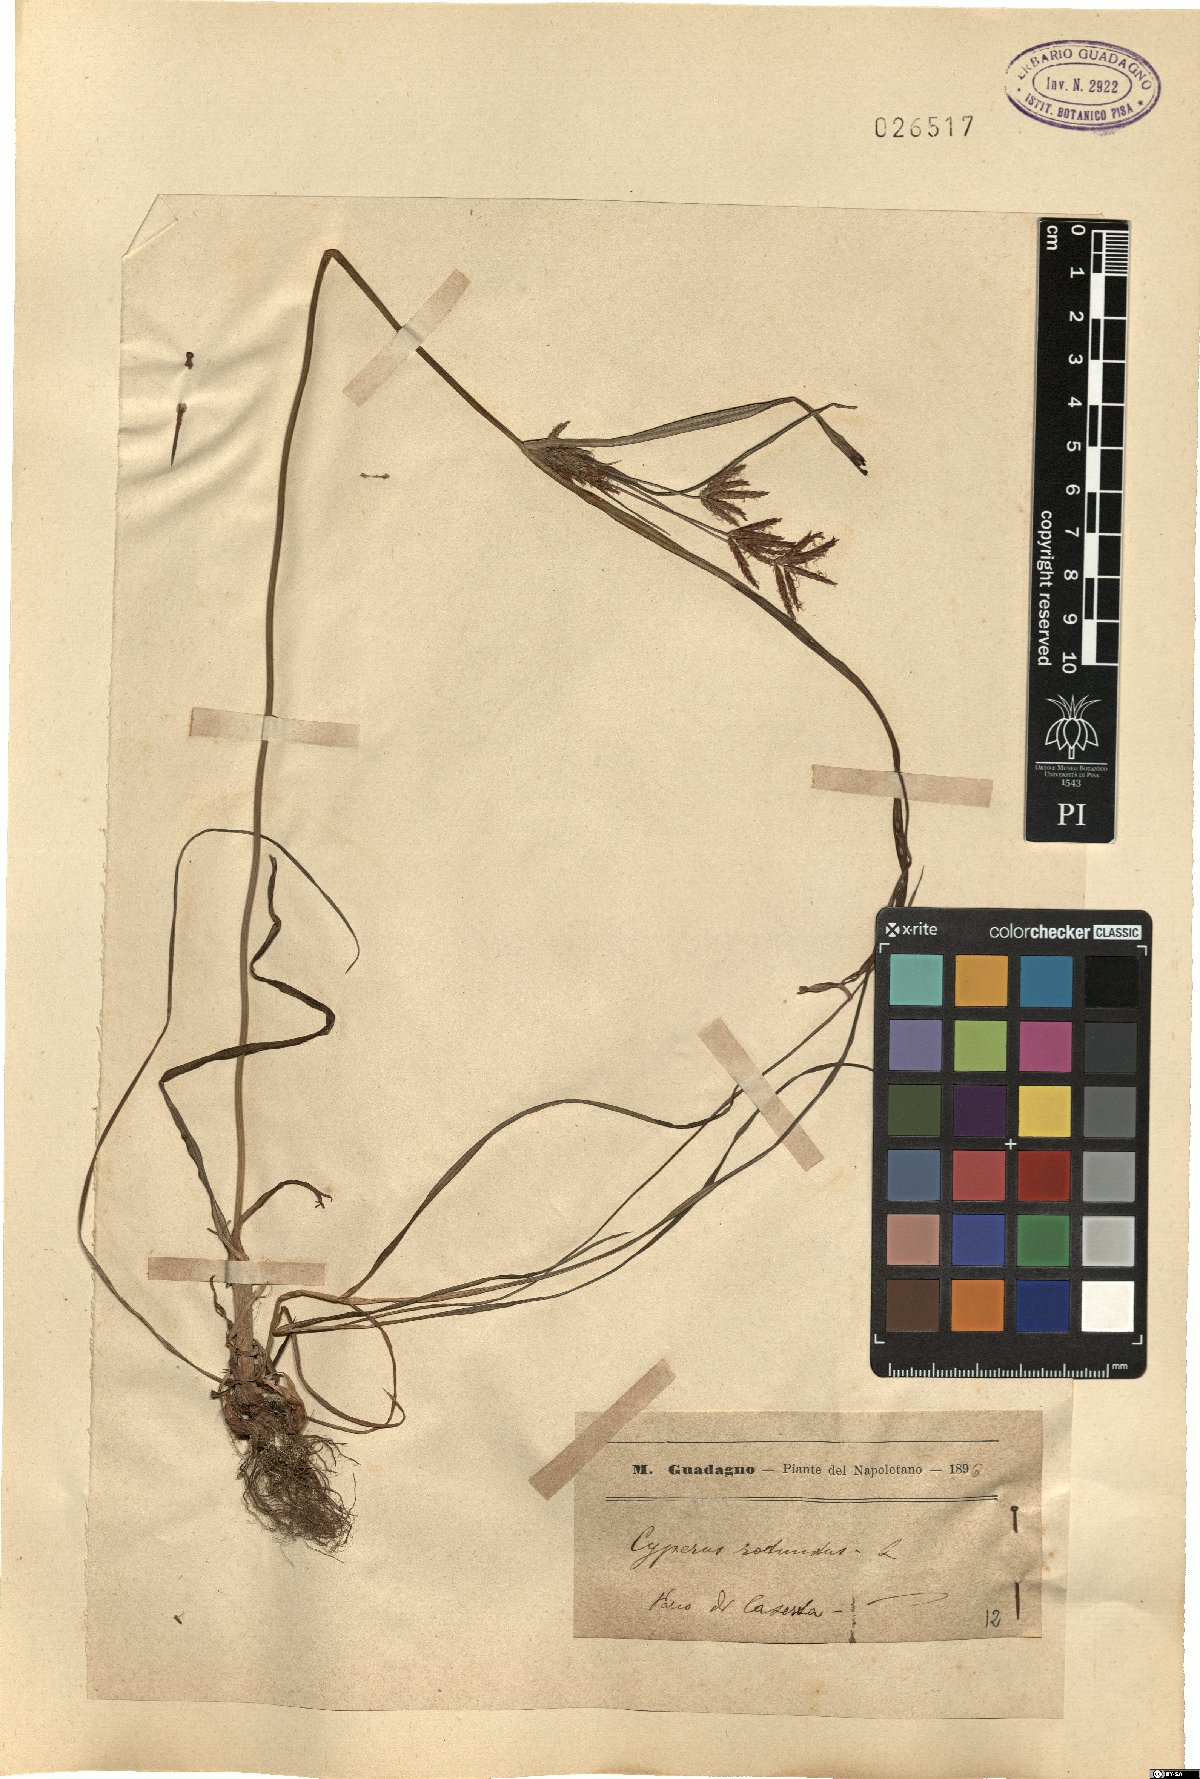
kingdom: Plantae
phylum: Tracheophyta
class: Liliopsida
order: Poales
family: Cyperaceae
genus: Cyperus
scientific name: Cyperus rotundus
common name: Nutgrass
